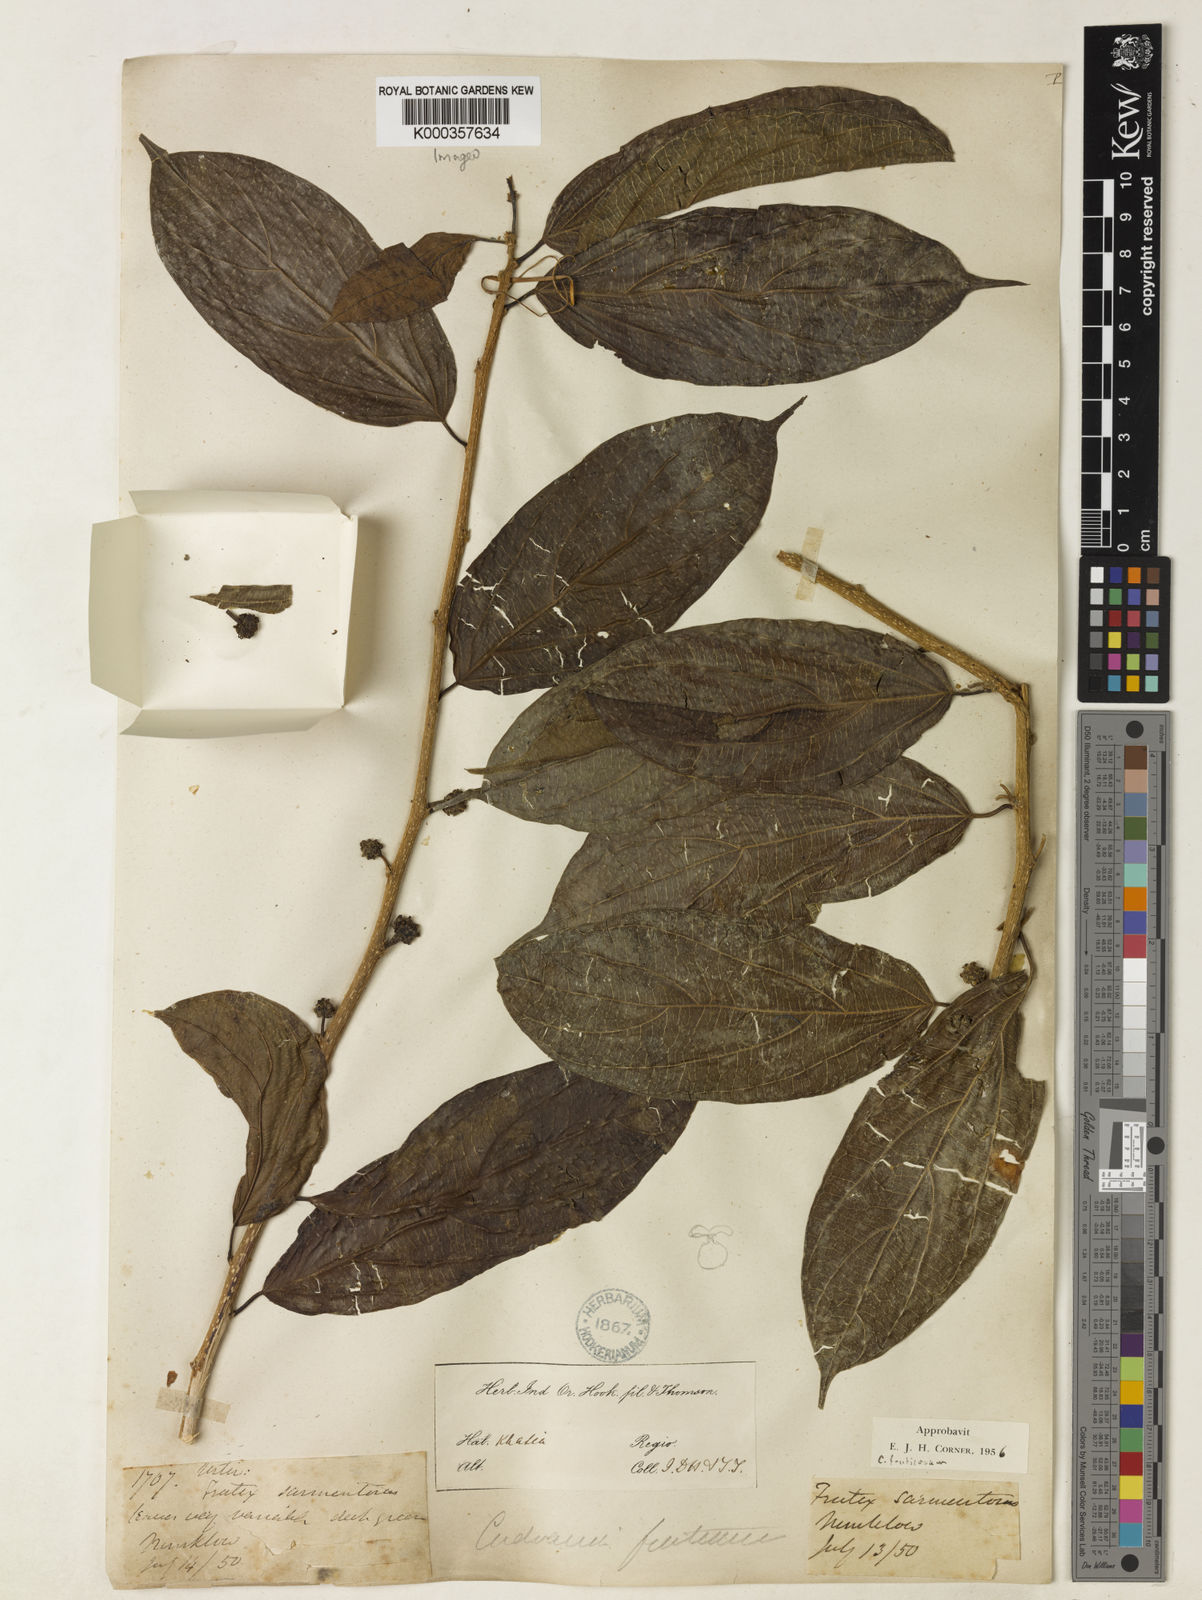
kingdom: Plantae
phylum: Tracheophyta
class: Magnoliopsida
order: Rosales
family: Moraceae
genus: Maclura
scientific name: Maclura fruticosa
